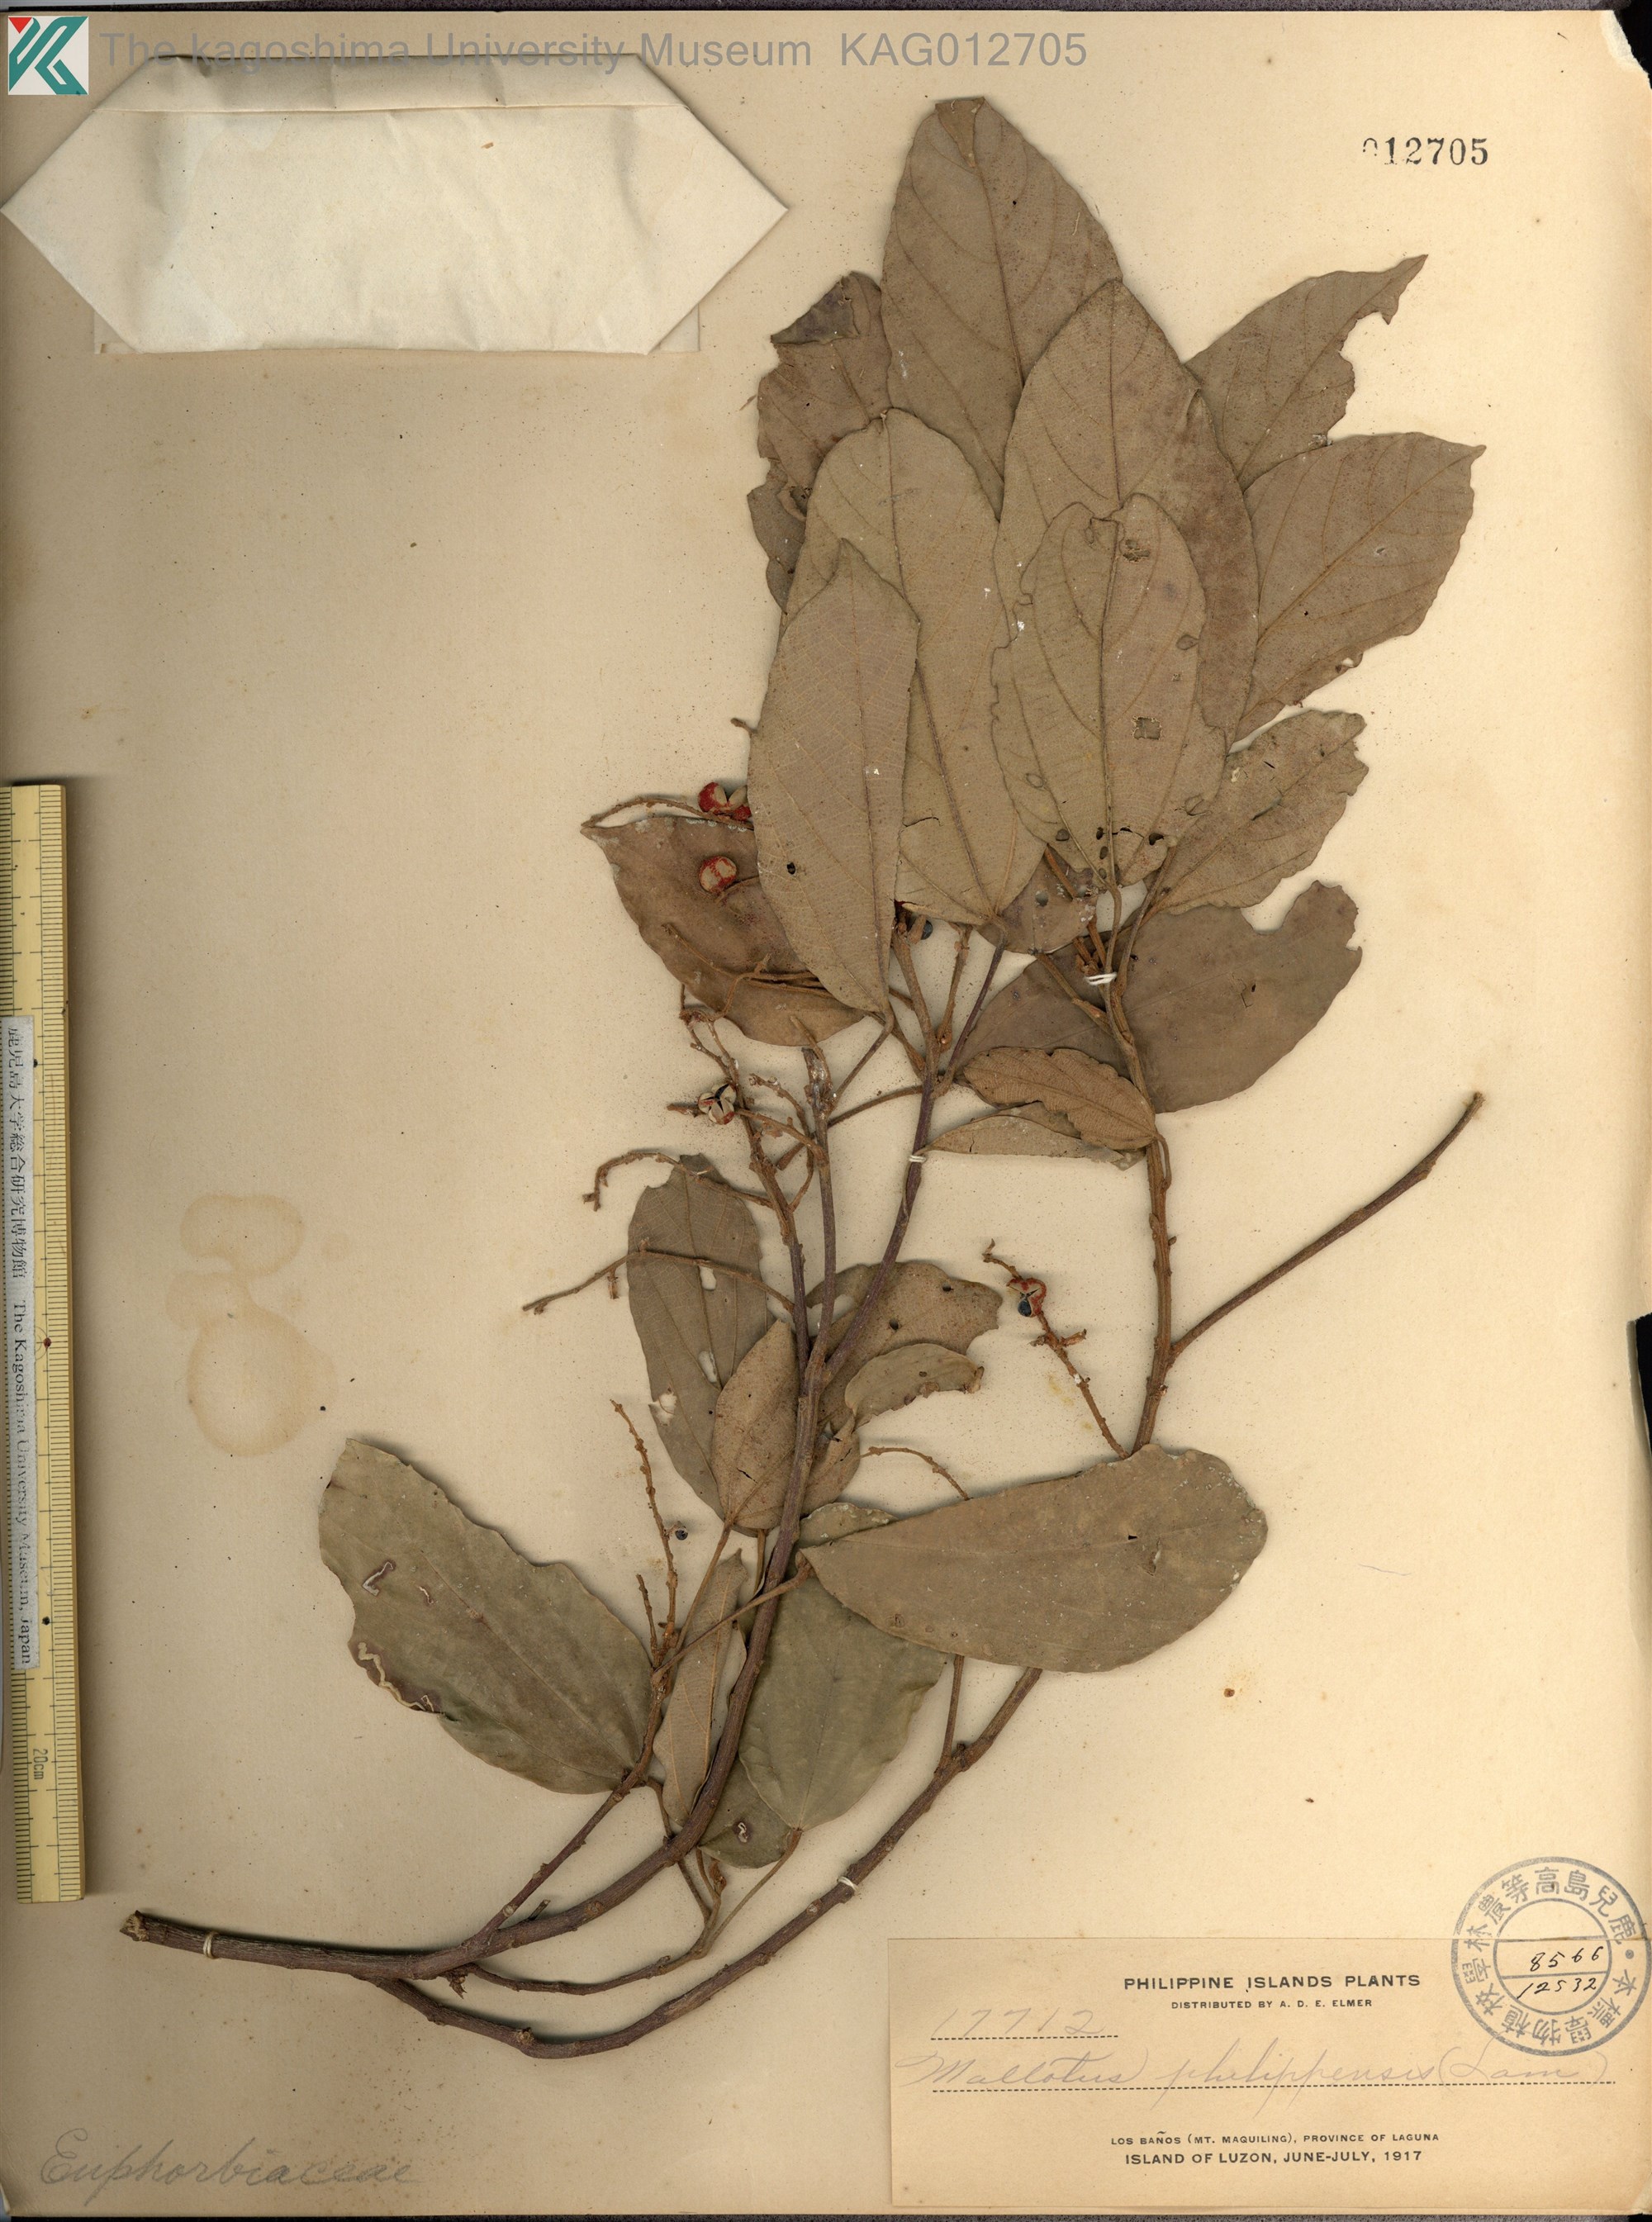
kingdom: Plantae
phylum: Tracheophyta
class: Magnoliopsida
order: Malpighiales
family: Euphorbiaceae
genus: Mallotus
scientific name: Mallotus philippensis
